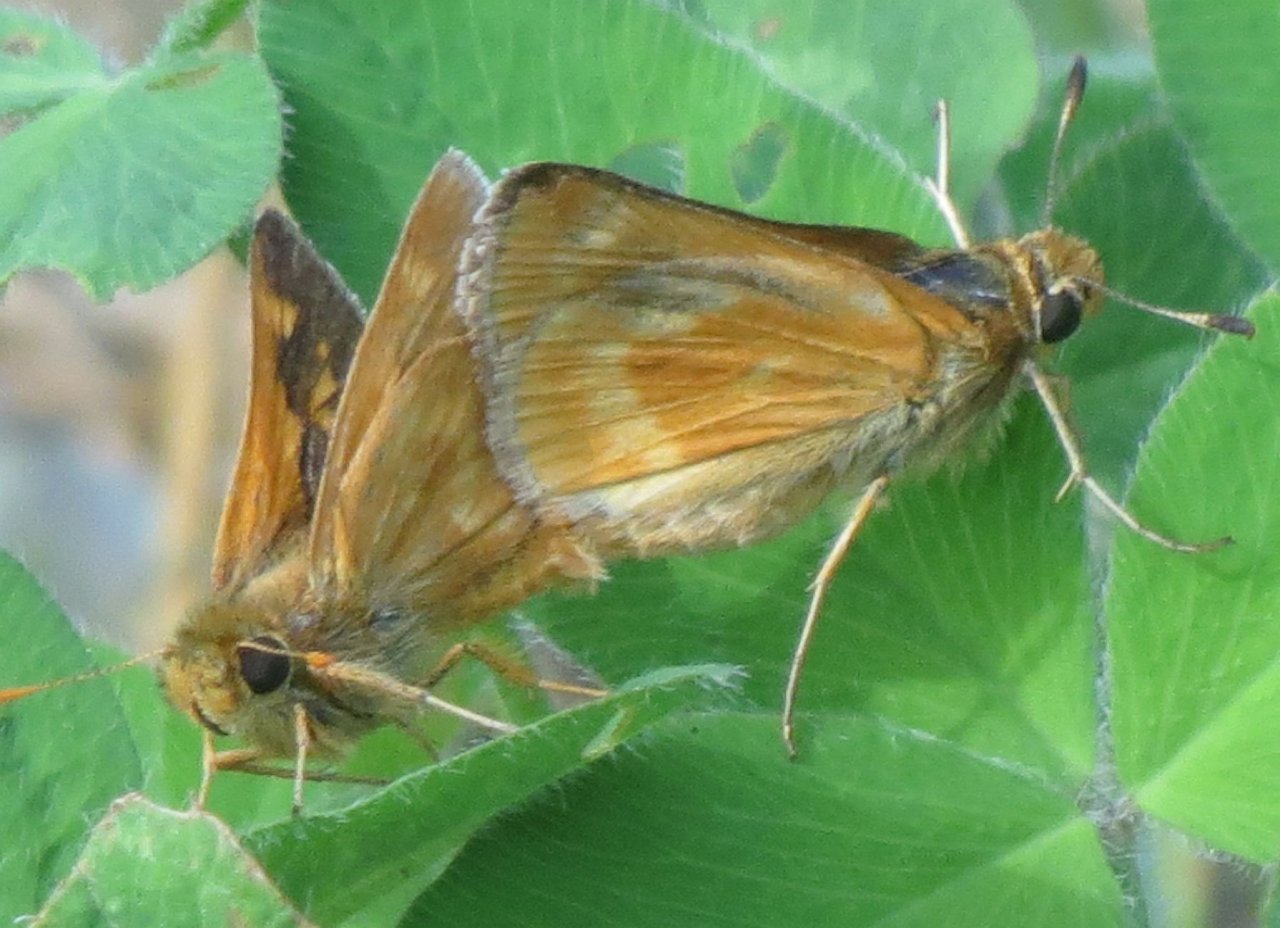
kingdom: Animalia
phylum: Arthropoda
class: Insecta
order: Lepidoptera
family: Hesperiidae
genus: Polites
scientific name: Polites themistocles
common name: Tawny-edged Skipper
